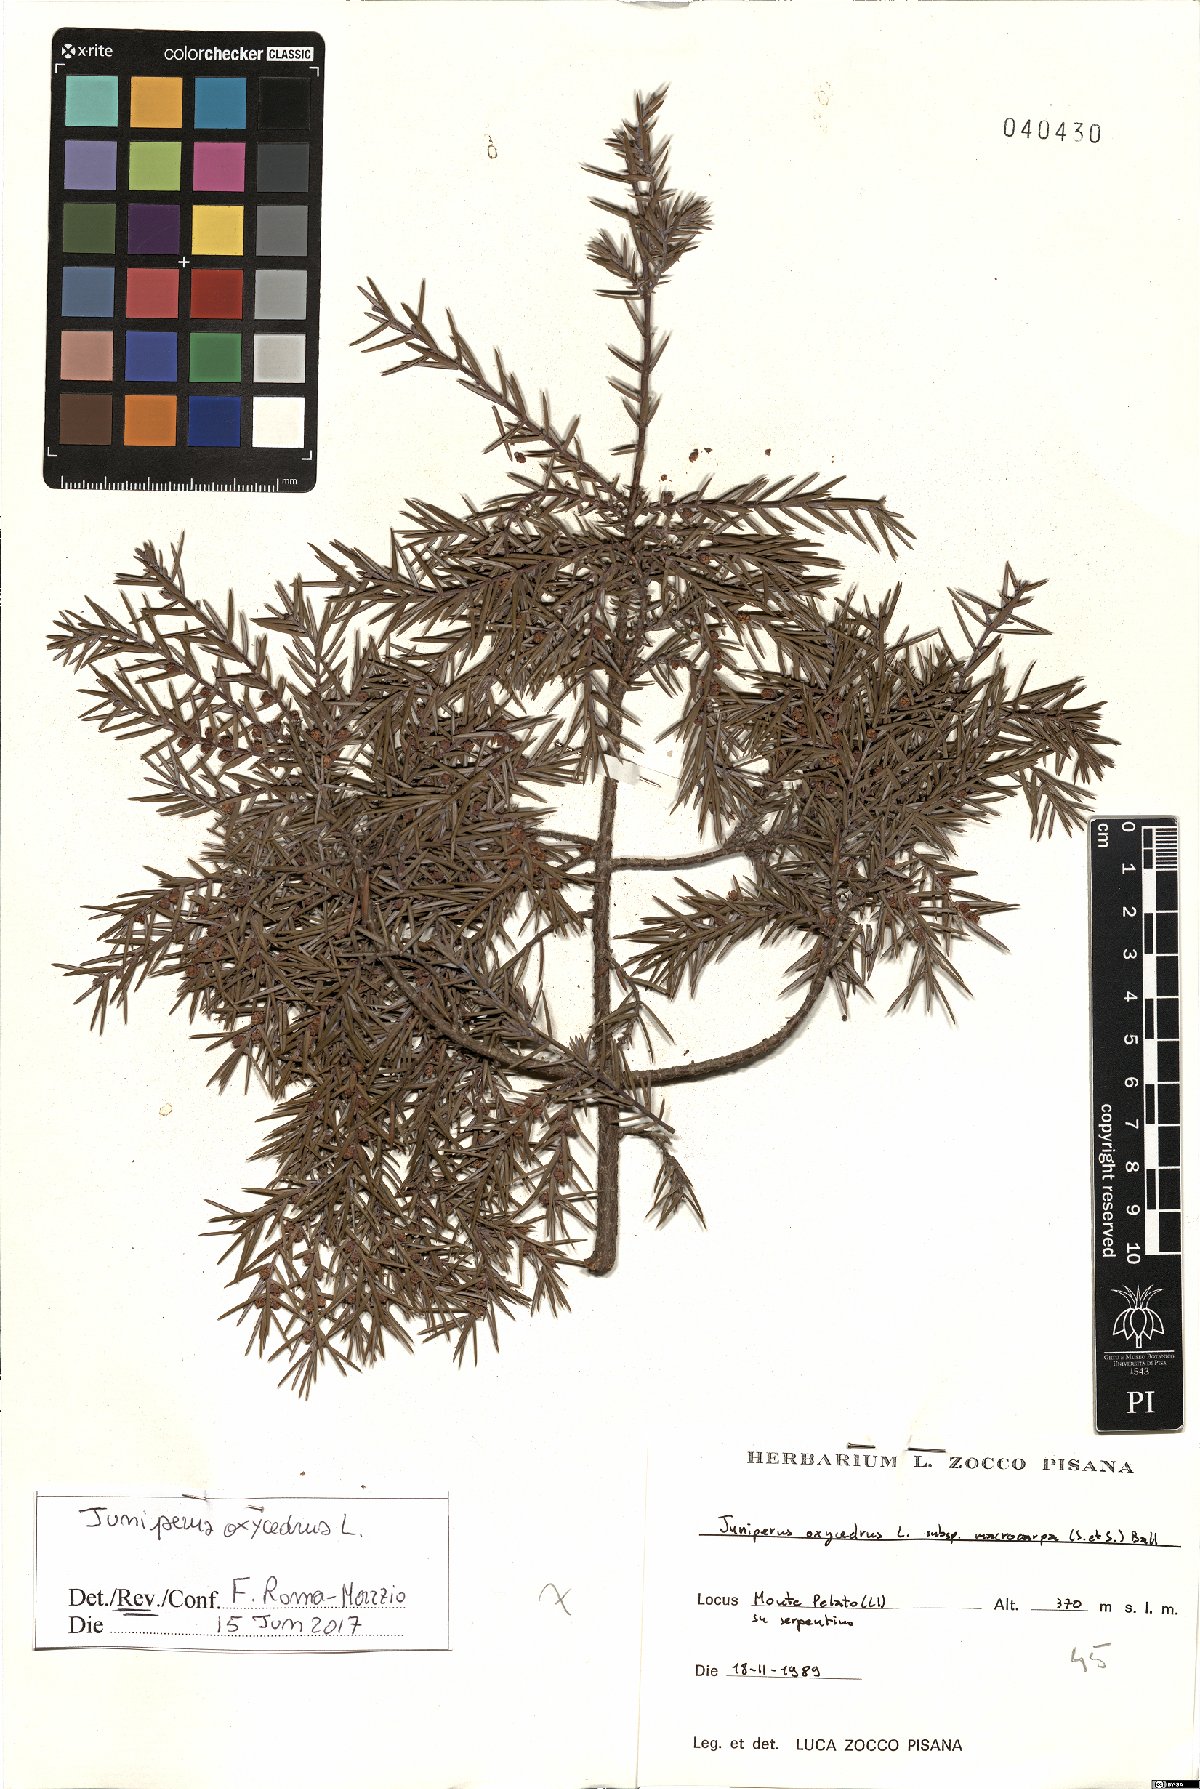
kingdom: Plantae
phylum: Tracheophyta
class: Pinopsida
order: Pinales
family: Cupressaceae
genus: Juniperus
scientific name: Juniperus oxycedrus
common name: Prickly juniper
